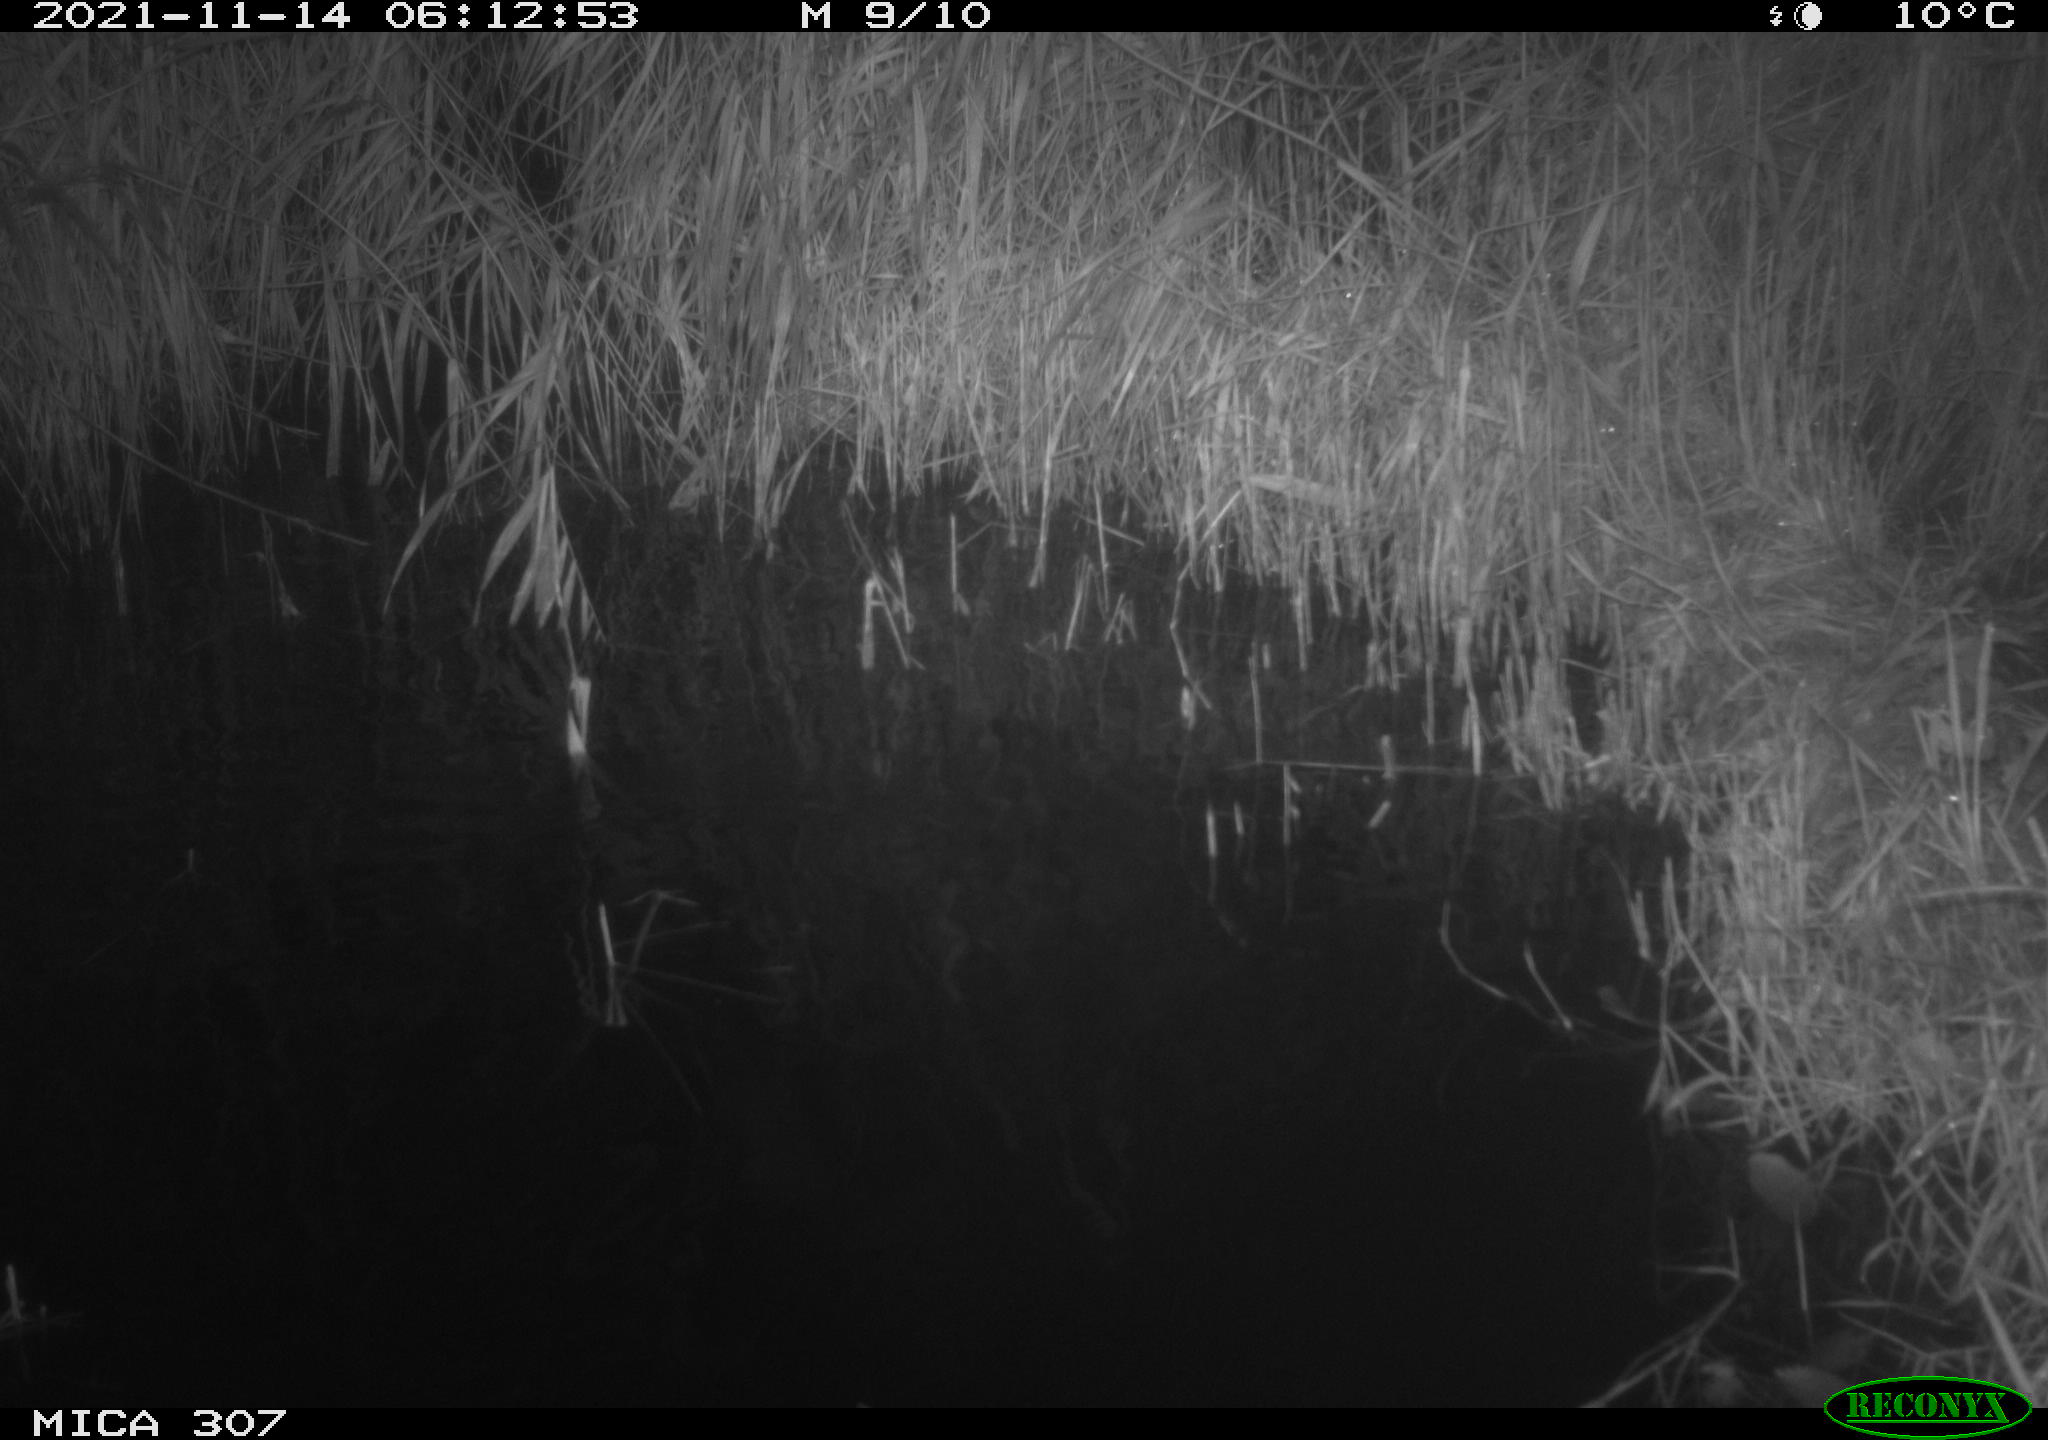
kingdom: Animalia
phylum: Chordata
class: Mammalia
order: Rodentia
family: Muridae
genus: Rattus
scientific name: Rattus norvegicus
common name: Brown rat
